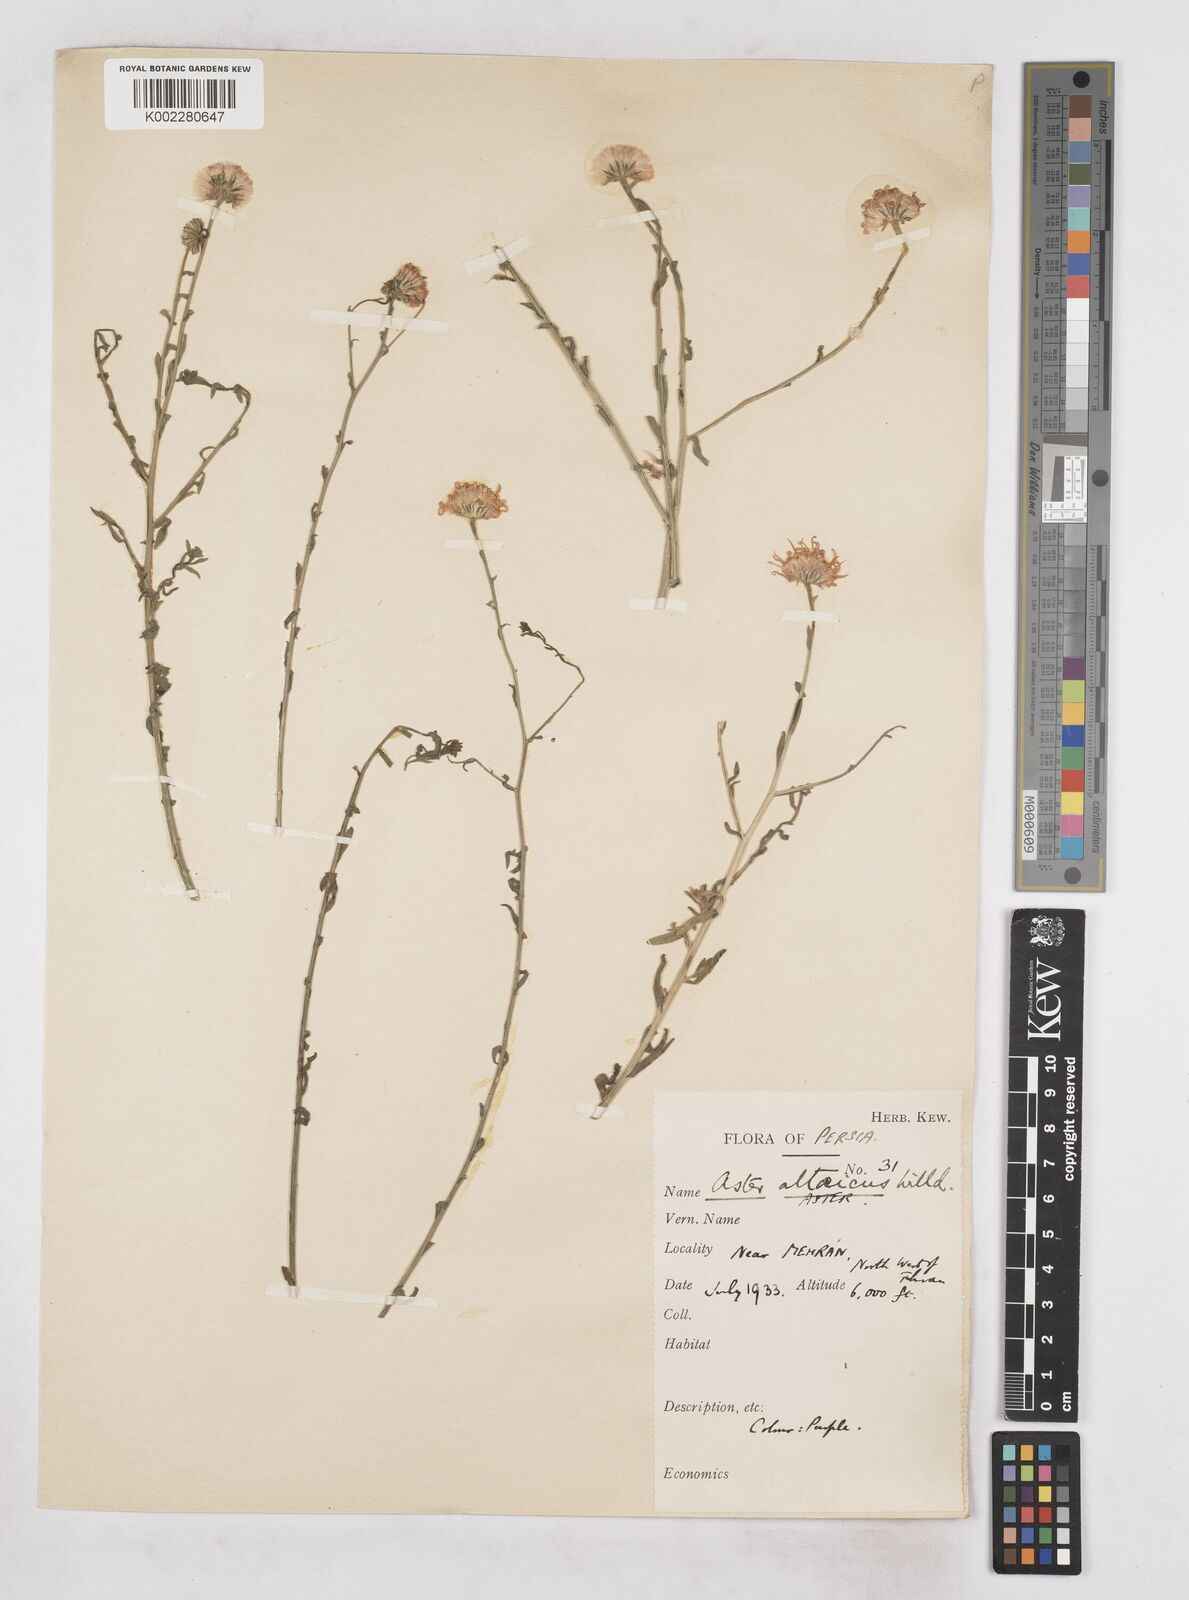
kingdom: Plantae
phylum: Tracheophyta
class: Magnoliopsida
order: Asterales
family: Asteraceae
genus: Heteropappus
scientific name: Heteropappus altaicus
